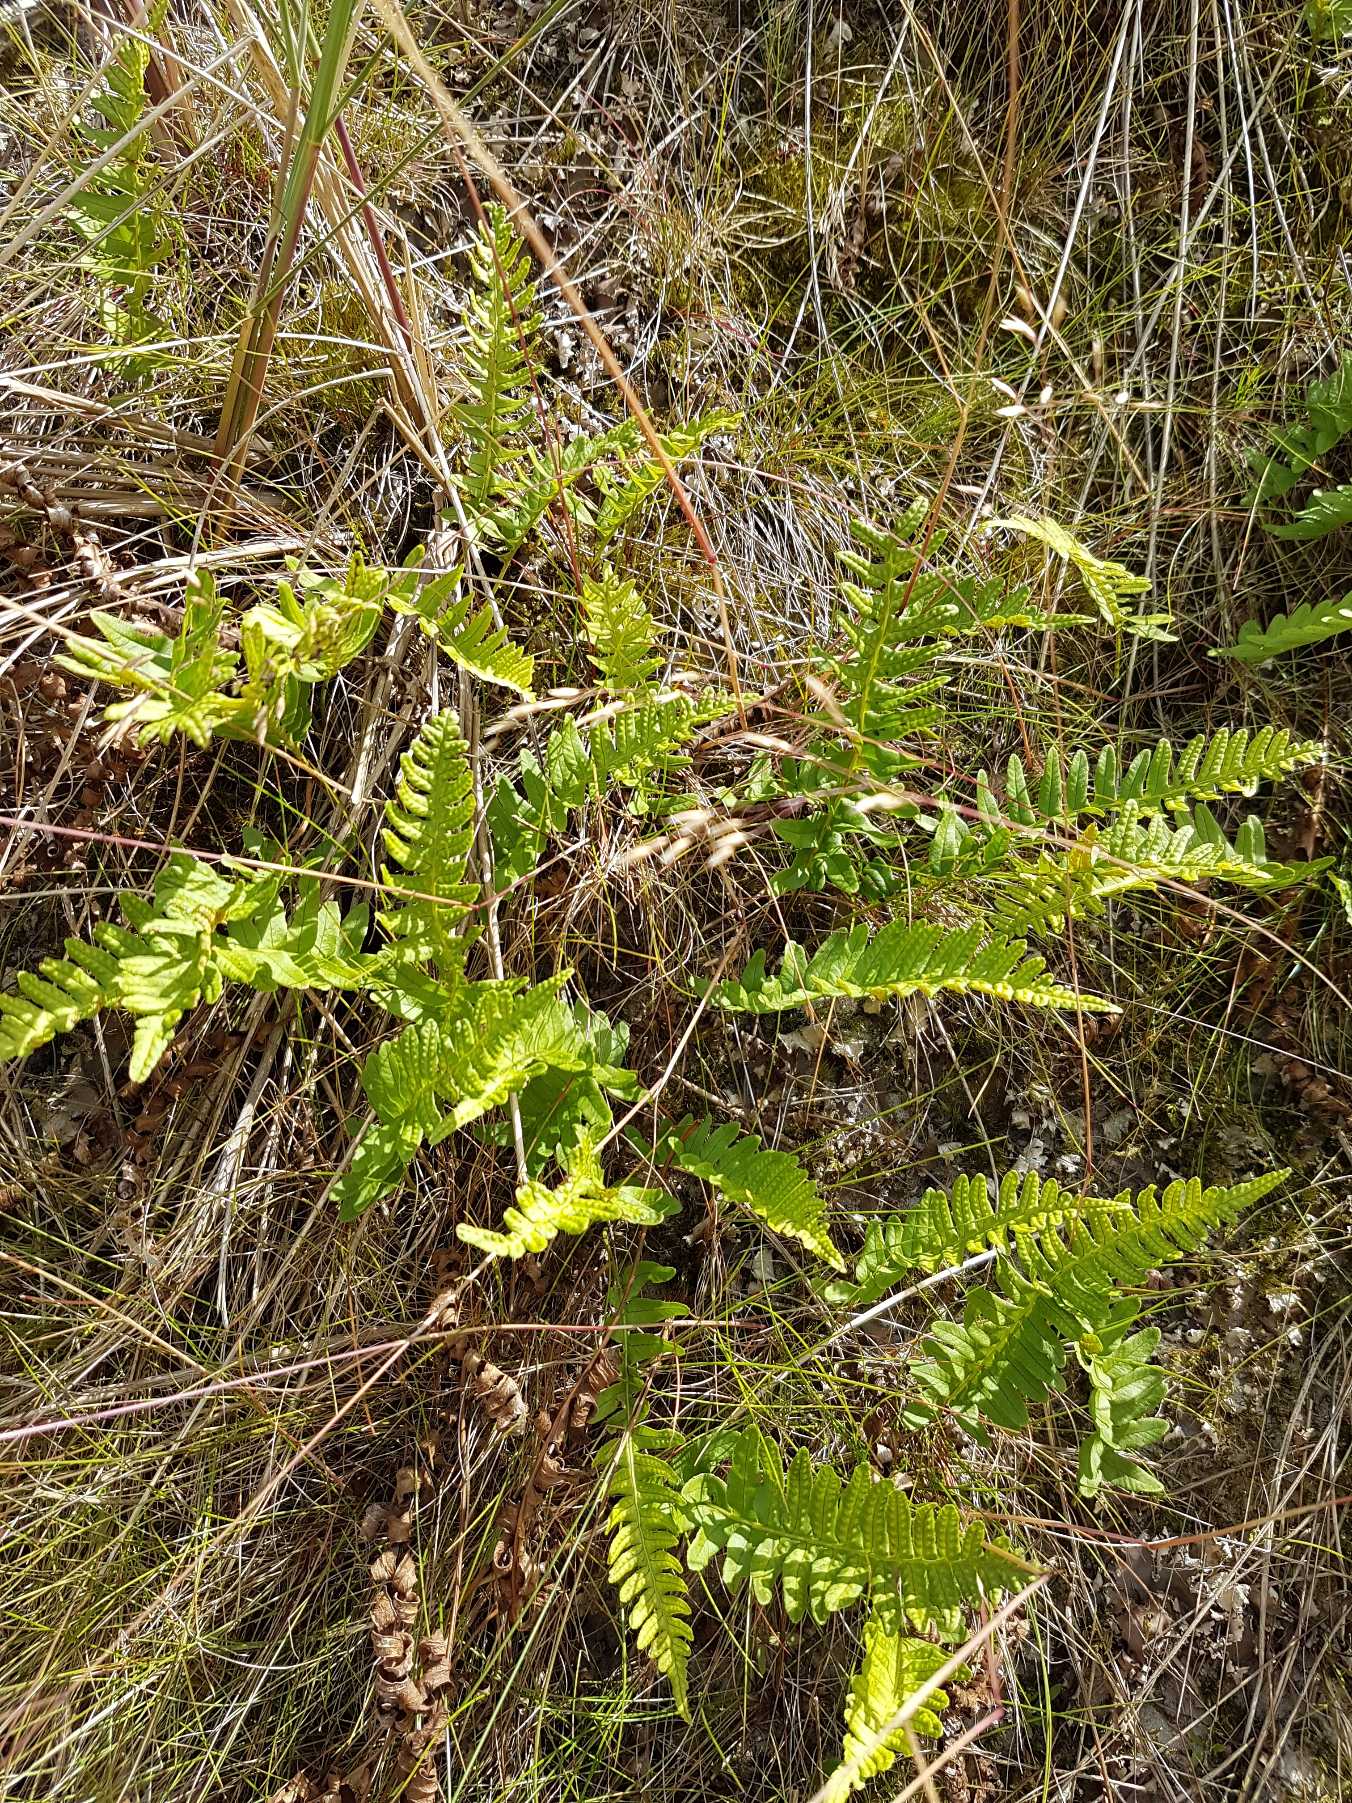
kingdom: Plantae
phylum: Tracheophyta
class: Polypodiopsida
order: Polypodiales
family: Polypodiaceae
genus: Polypodium
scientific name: Polypodium vulgare
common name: Almindelig engelsød
